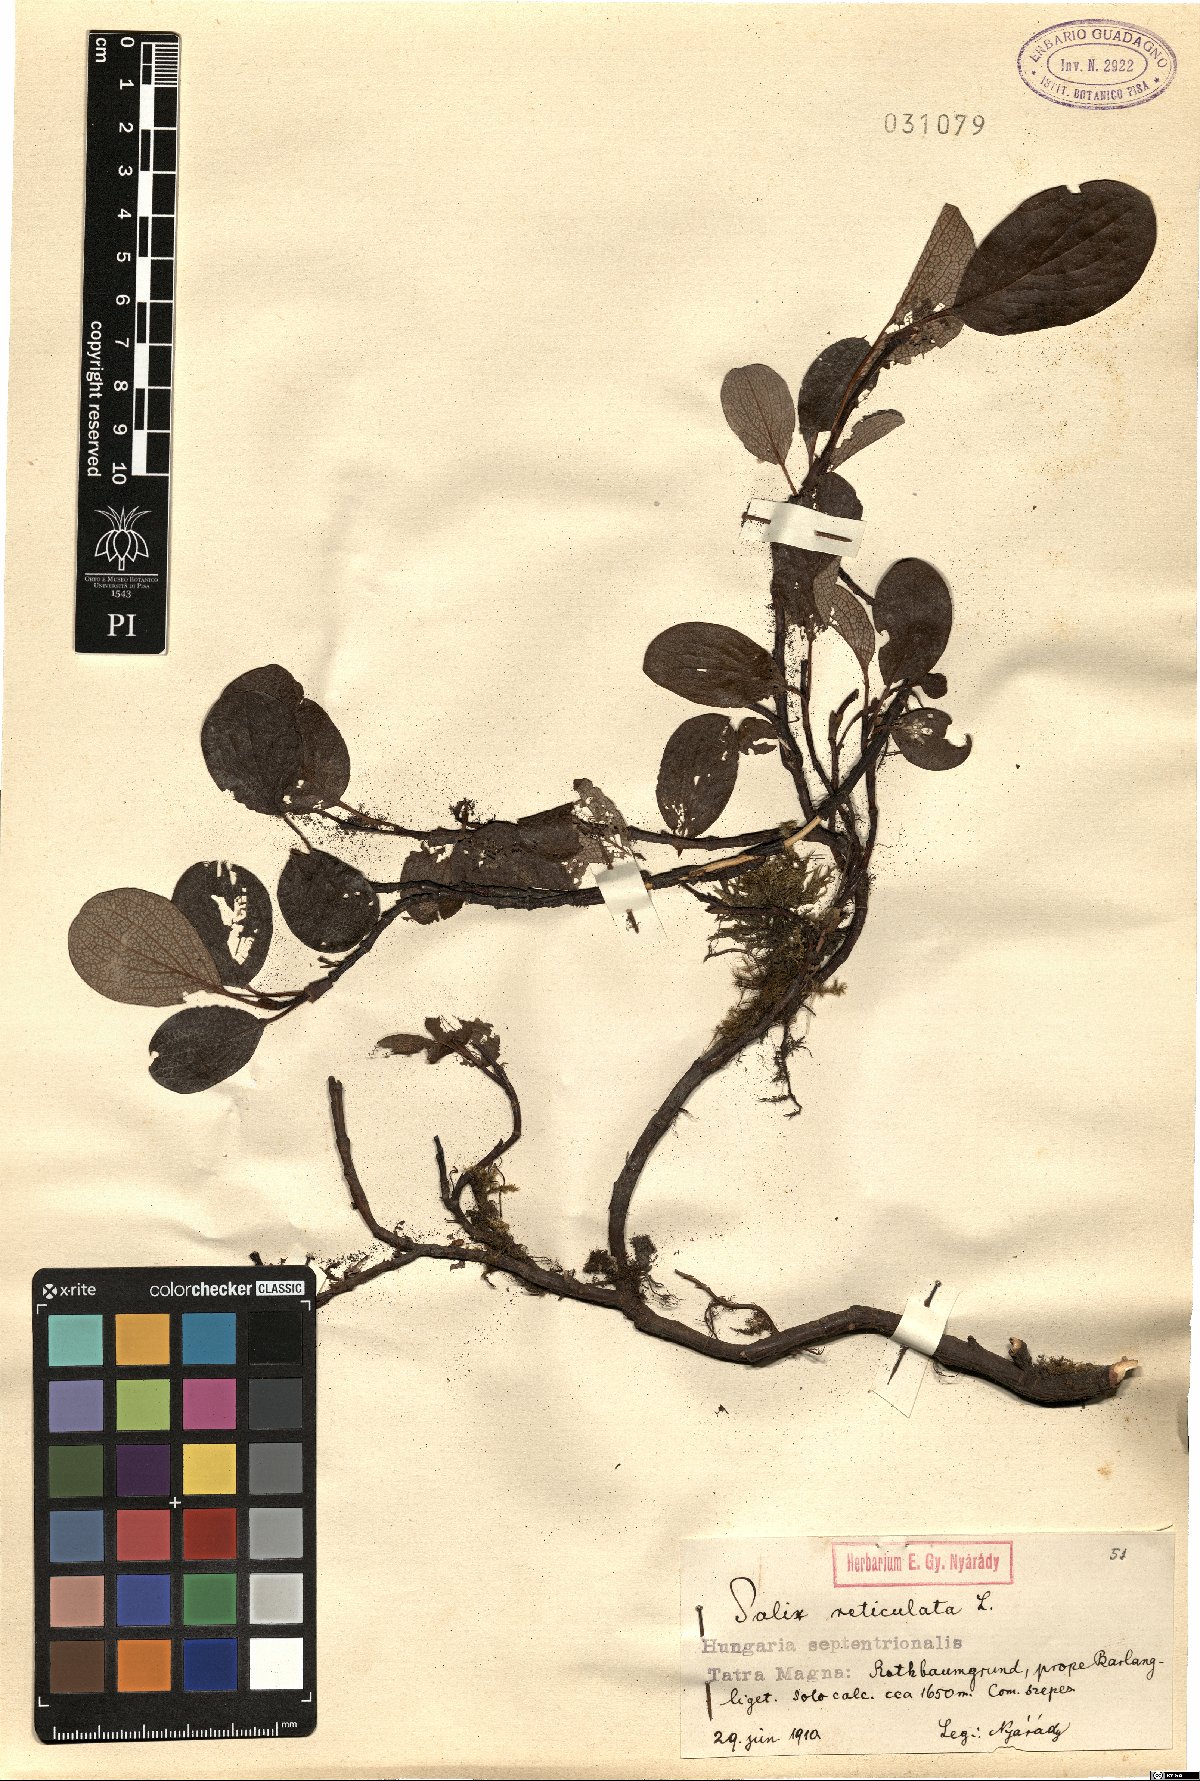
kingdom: Plantae
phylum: Tracheophyta
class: Magnoliopsida
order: Malpighiales
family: Salicaceae
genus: Salix
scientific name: Salix reticulata
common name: Net-leaved willow
